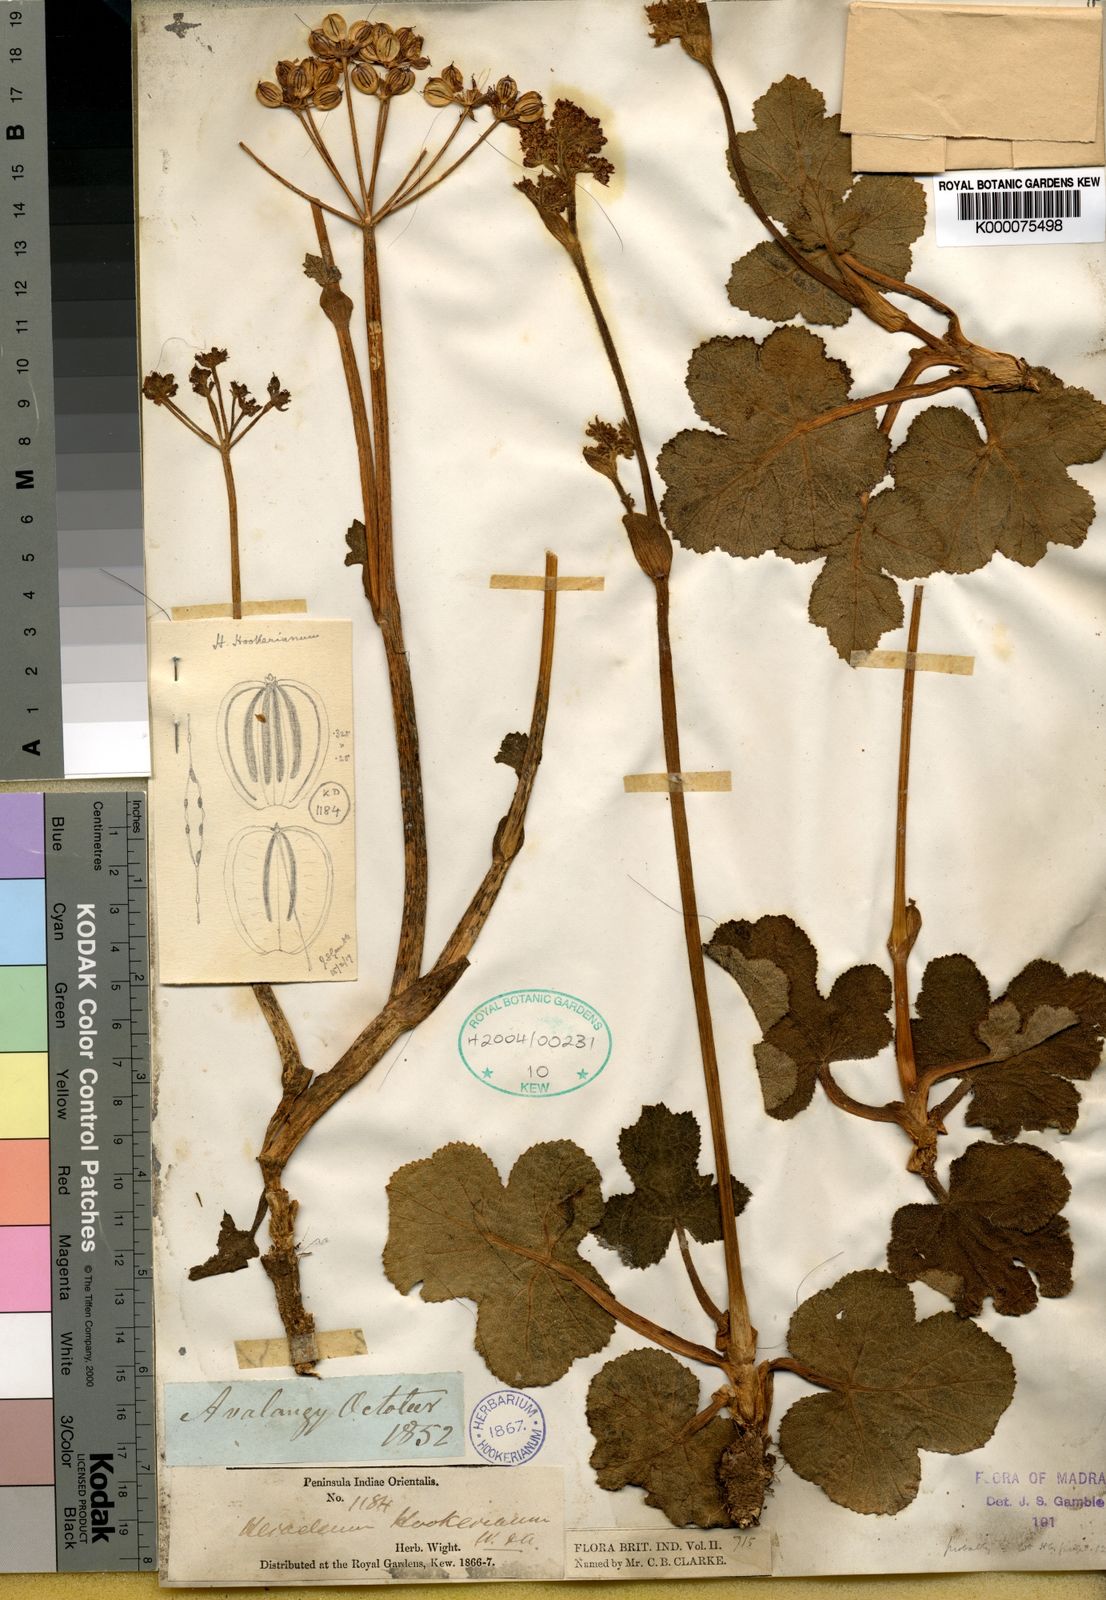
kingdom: Plantae
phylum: Tracheophyta
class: Magnoliopsida
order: Apiales
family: Apiaceae
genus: Tetrataenium
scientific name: Tetrataenium hookerianum
